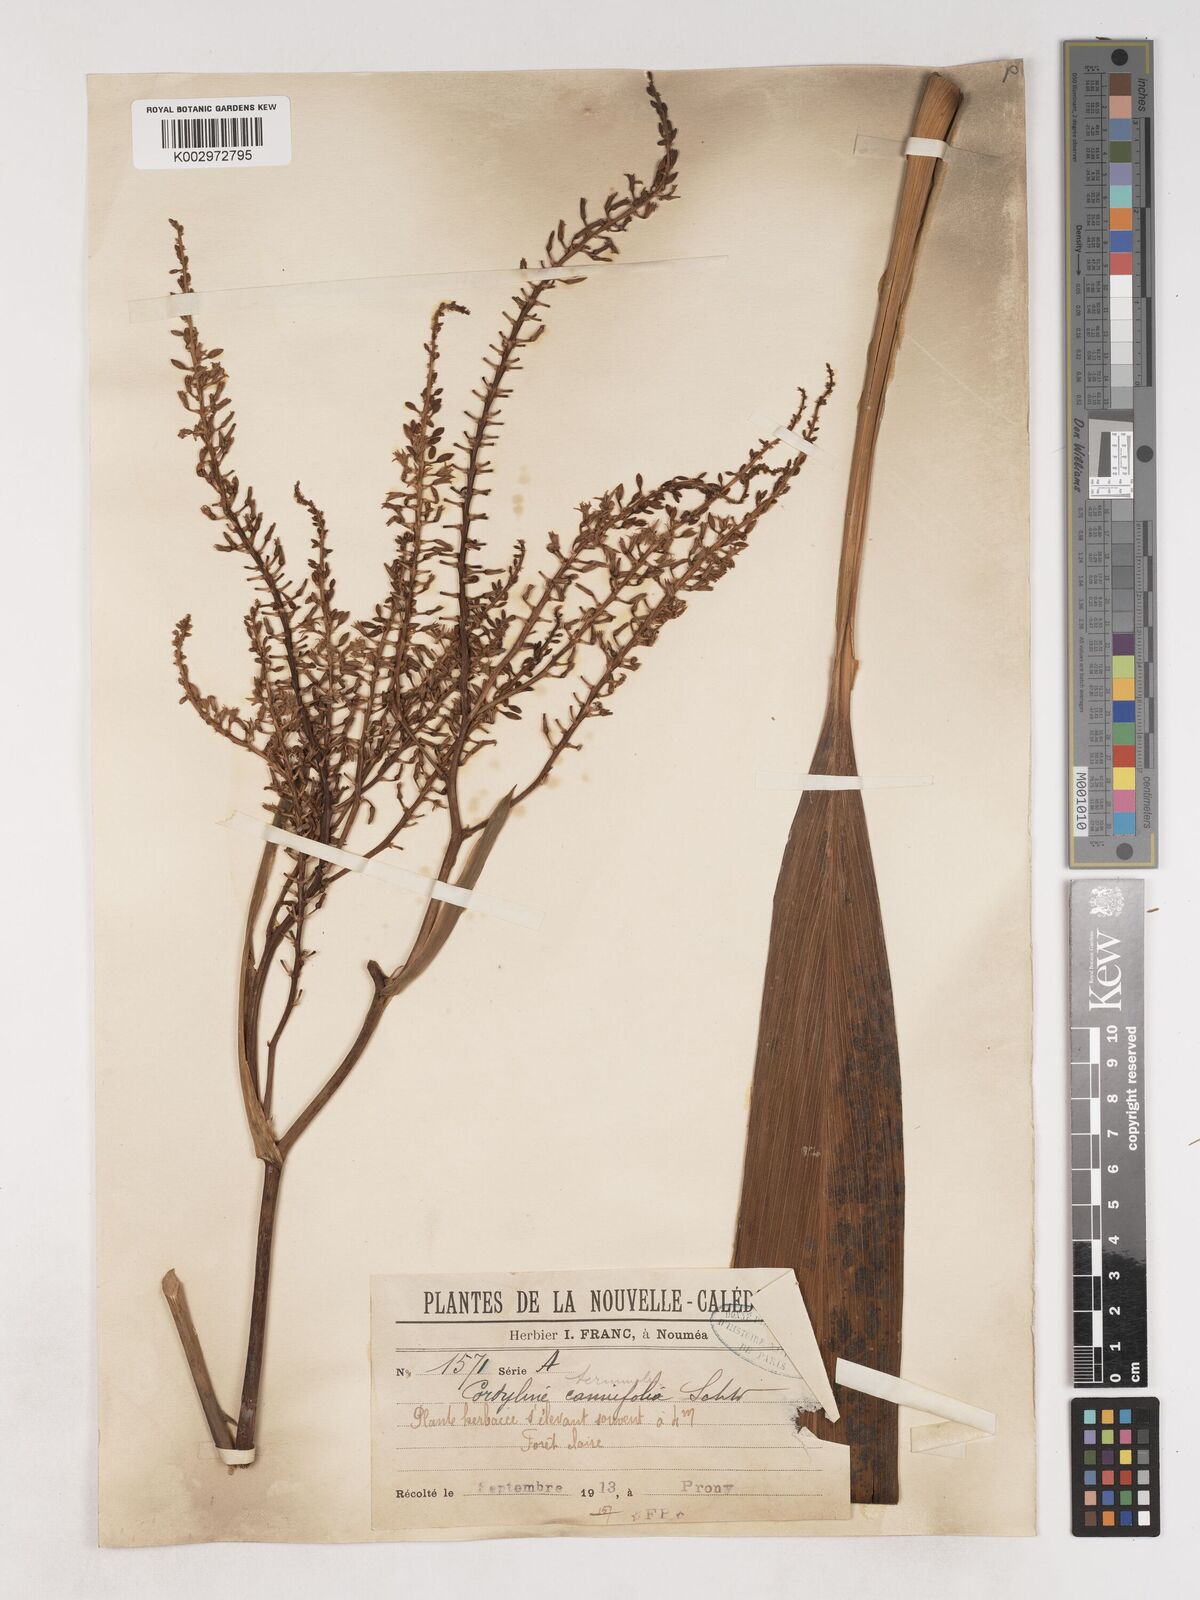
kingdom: Plantae
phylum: Tracheophyta
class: Liliopsida
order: Asparagales
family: Asparagaceae
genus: Cordyline
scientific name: Cordyline fruticosa
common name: Good-luck-plant
